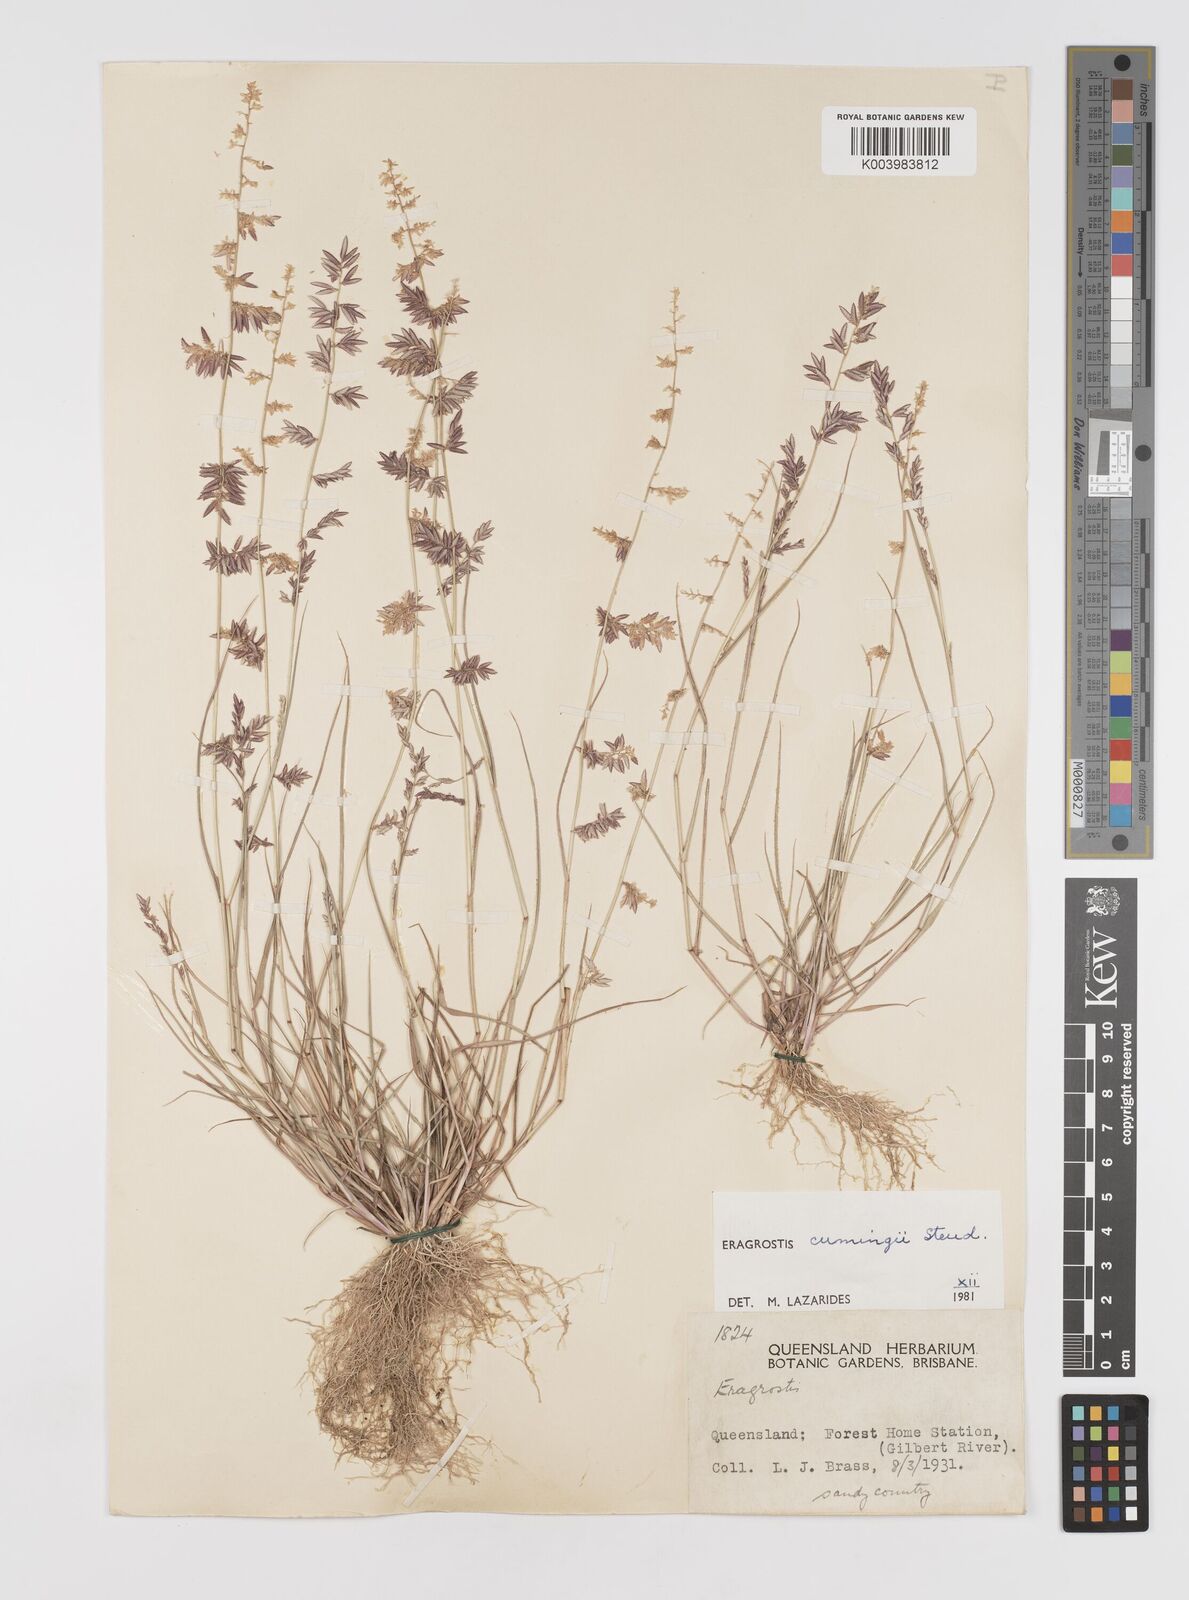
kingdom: Plantae
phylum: Tracheophyta
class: Liliopsida
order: Poales
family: Poaceae
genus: Eragrostis
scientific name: Eragrostis cumingii
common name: Cuming's lovegrass
